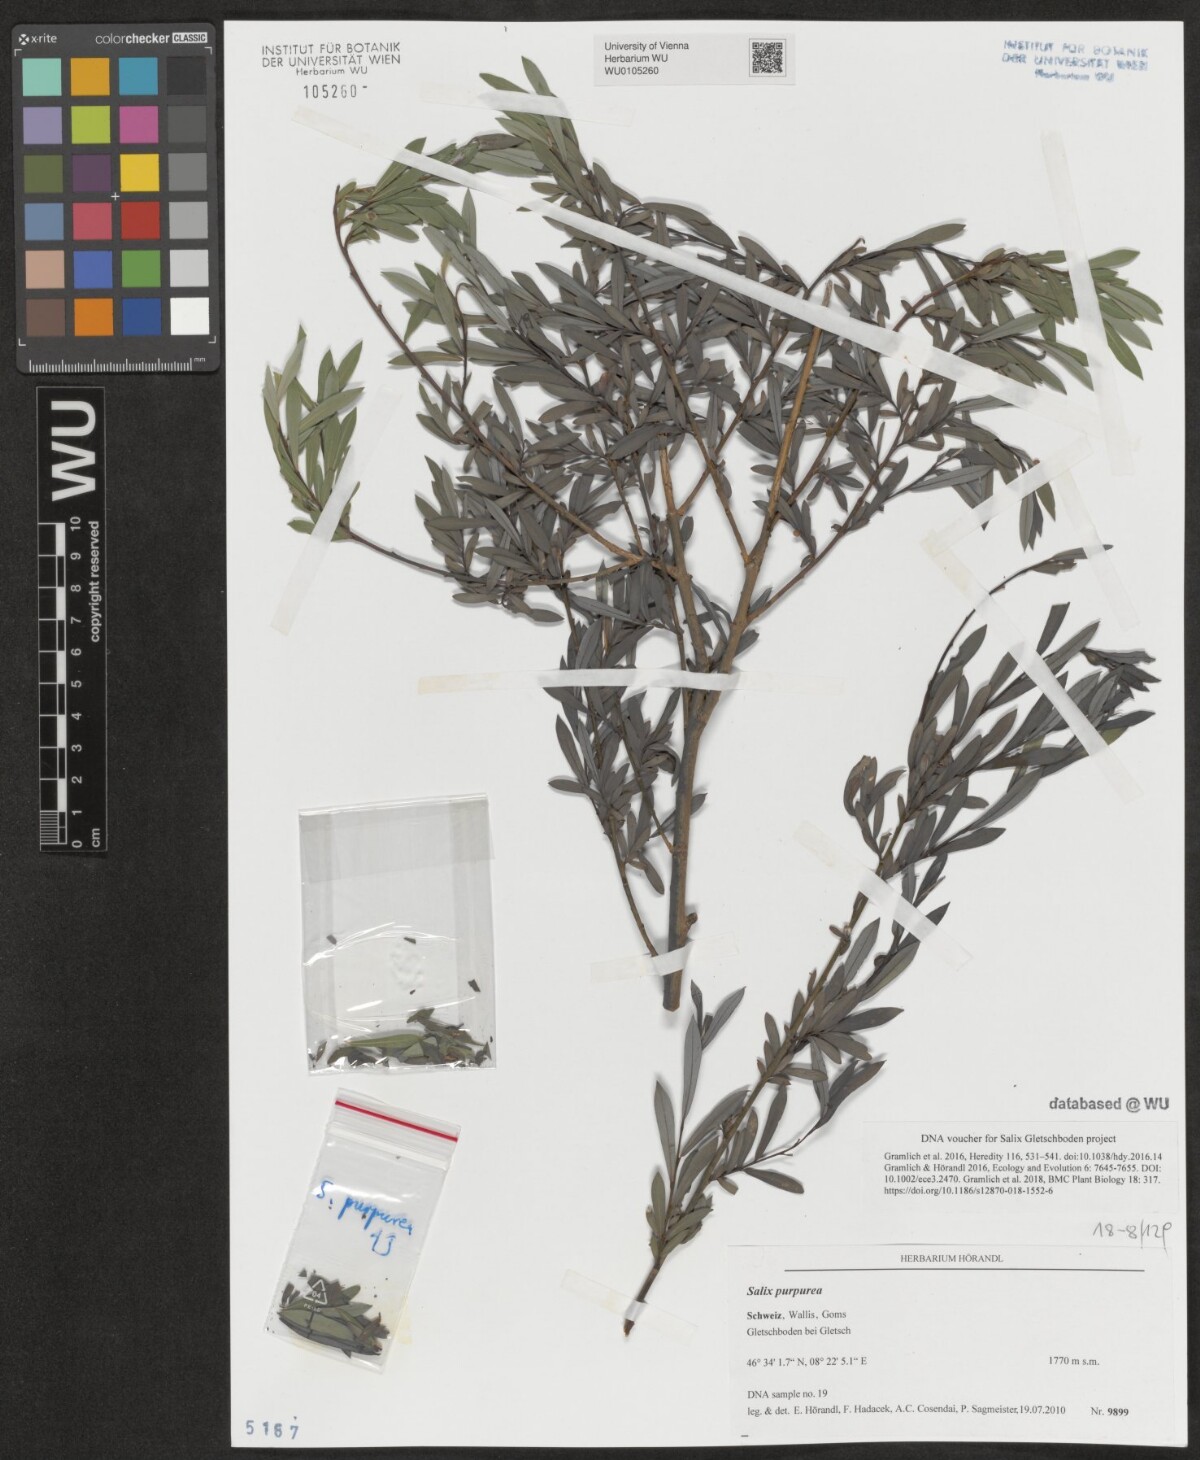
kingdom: Plantae
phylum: Tracheophyta
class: Magnoliopsida
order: Malpighiales
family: Salicaceae
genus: Salix
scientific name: Salix purpurea
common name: Purple willow
